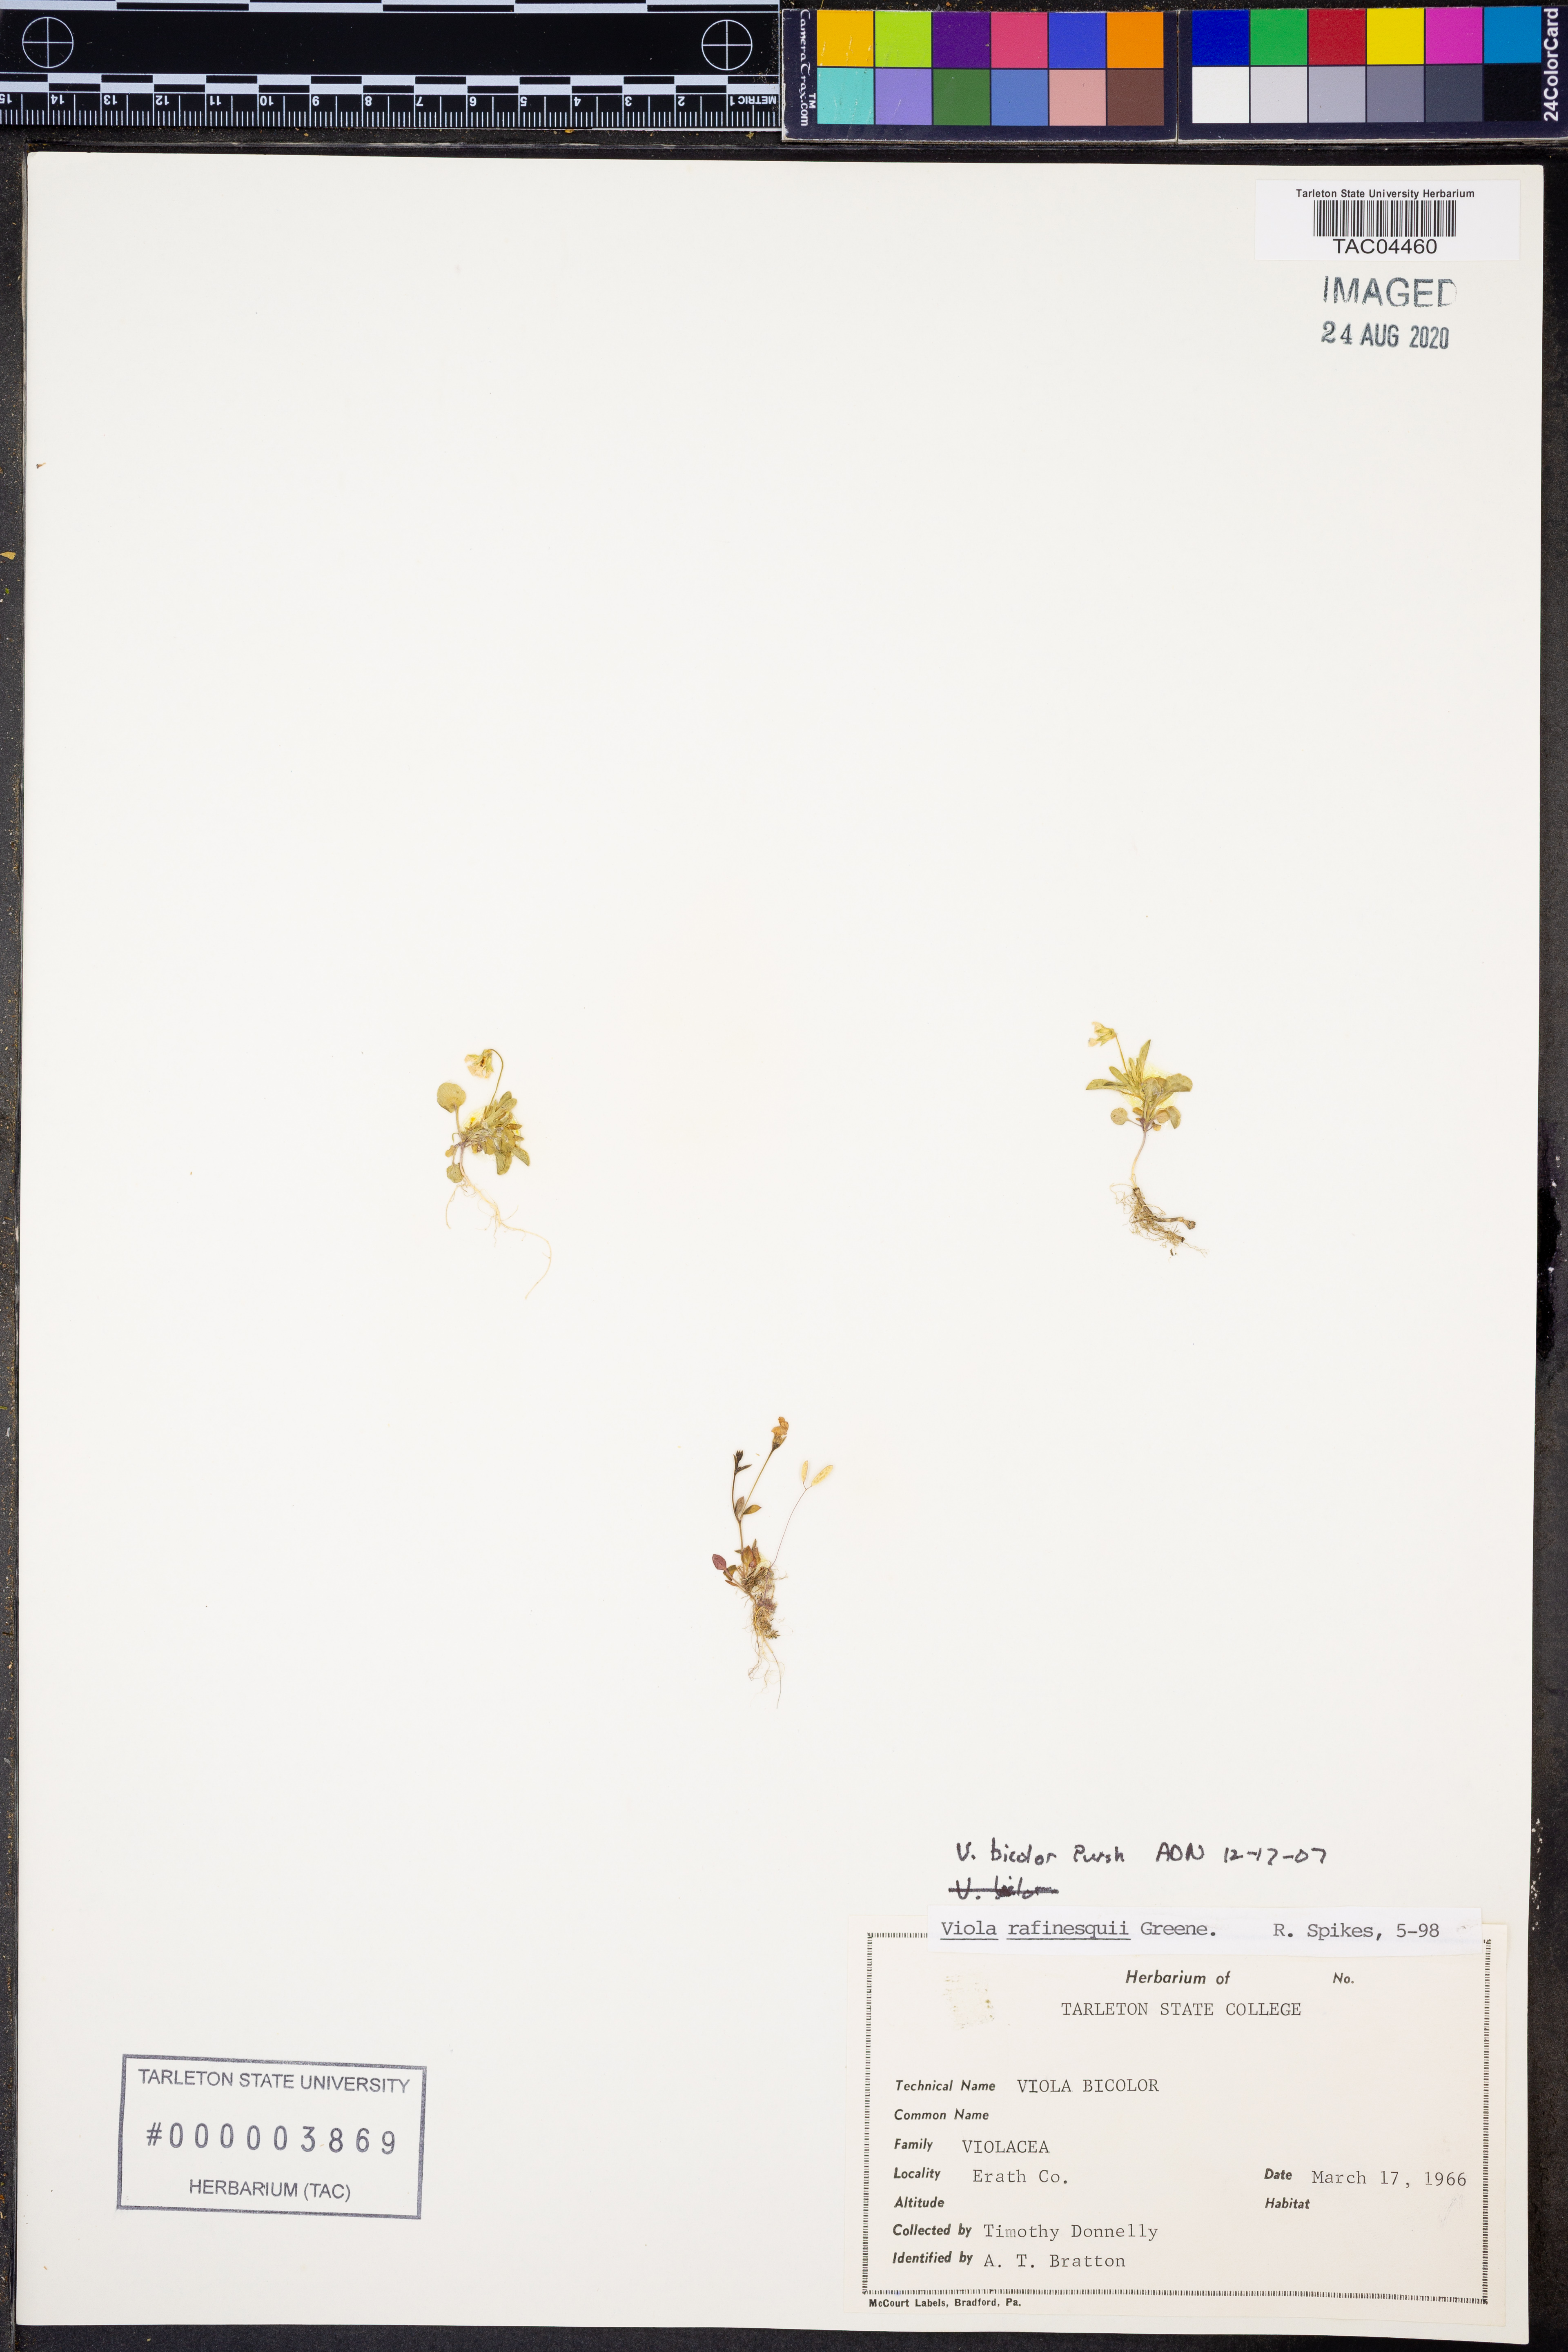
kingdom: Plantae
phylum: Tracheophyta
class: Magnoliopsida
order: Malpighiales
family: Violaceae
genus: Viola
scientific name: Viola rafinesquei
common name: American field pansy
